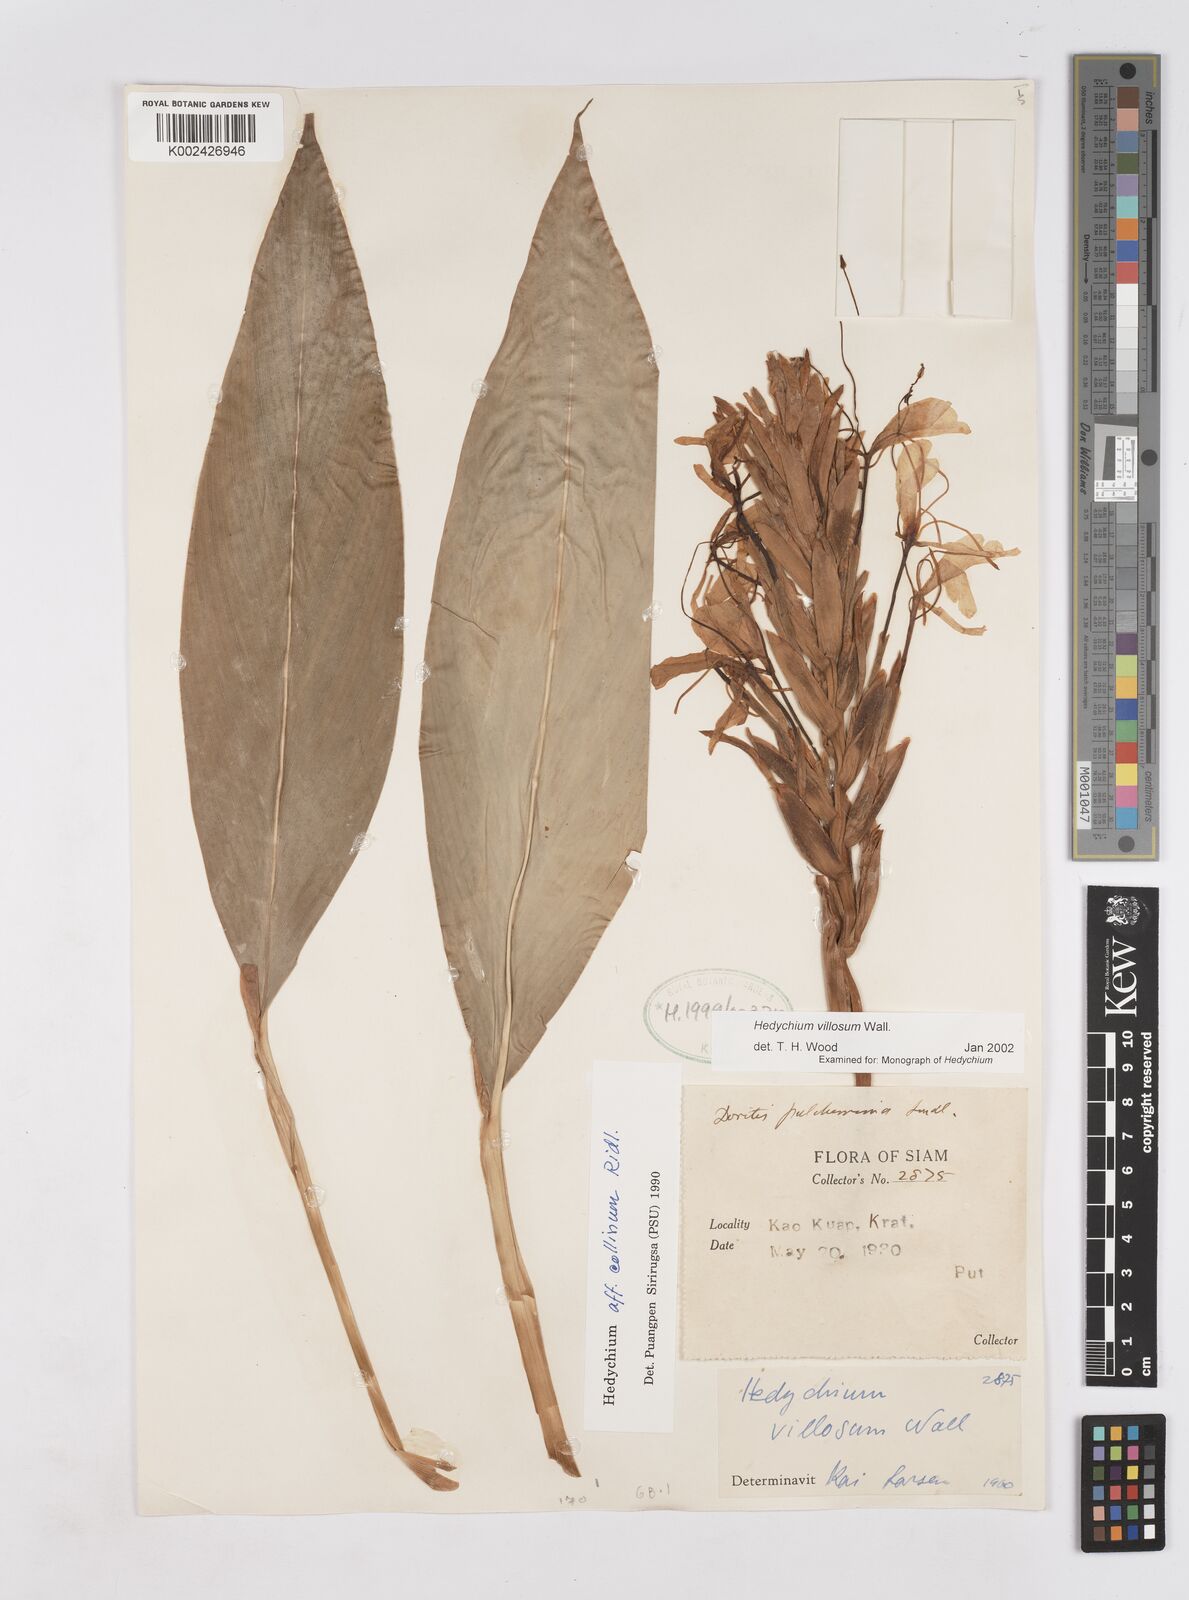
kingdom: Plantae
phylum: Tracheophyta
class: Liliopsida
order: Zingiberales
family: Zingiberaceae
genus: Hedychium
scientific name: Hedychium villosum
